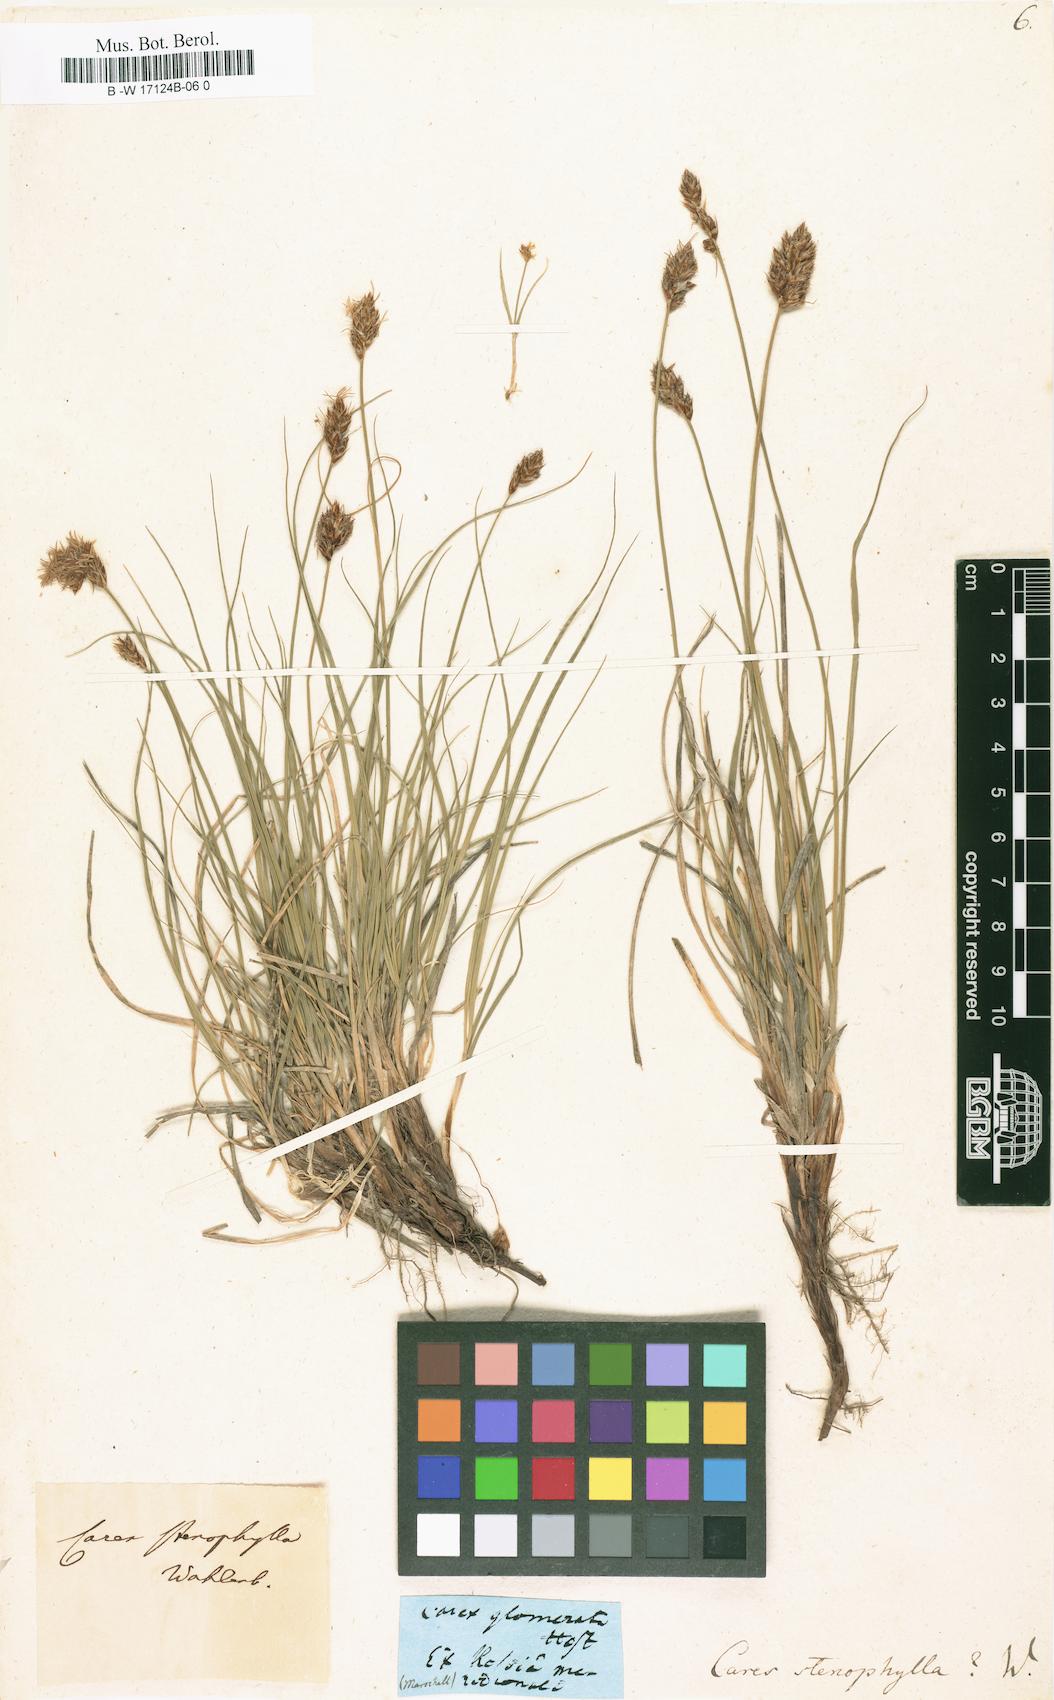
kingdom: Plantae
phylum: Tracheophyta
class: Liliopsida
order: Poales
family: Cyperaceae
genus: Carex
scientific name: Carex stenophylla
